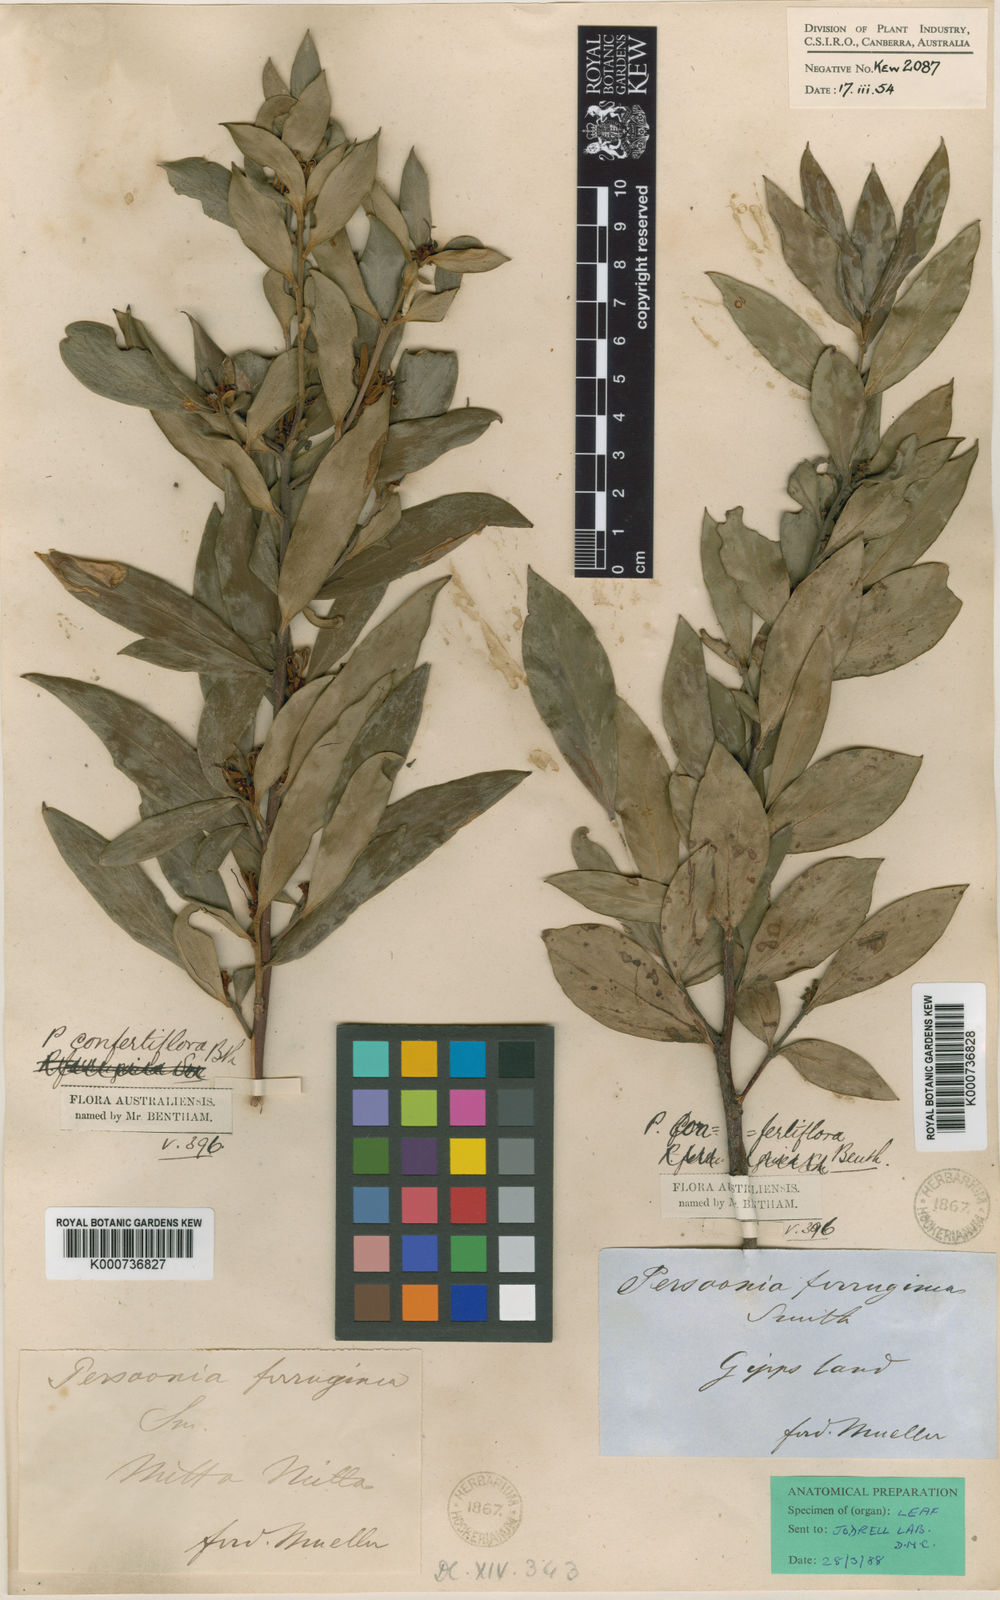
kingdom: Plantae
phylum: Tracheophyta
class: Magnoliopsida
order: Proteales
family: Proteaceae
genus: Persoonia
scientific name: Persoonia confertifolia
